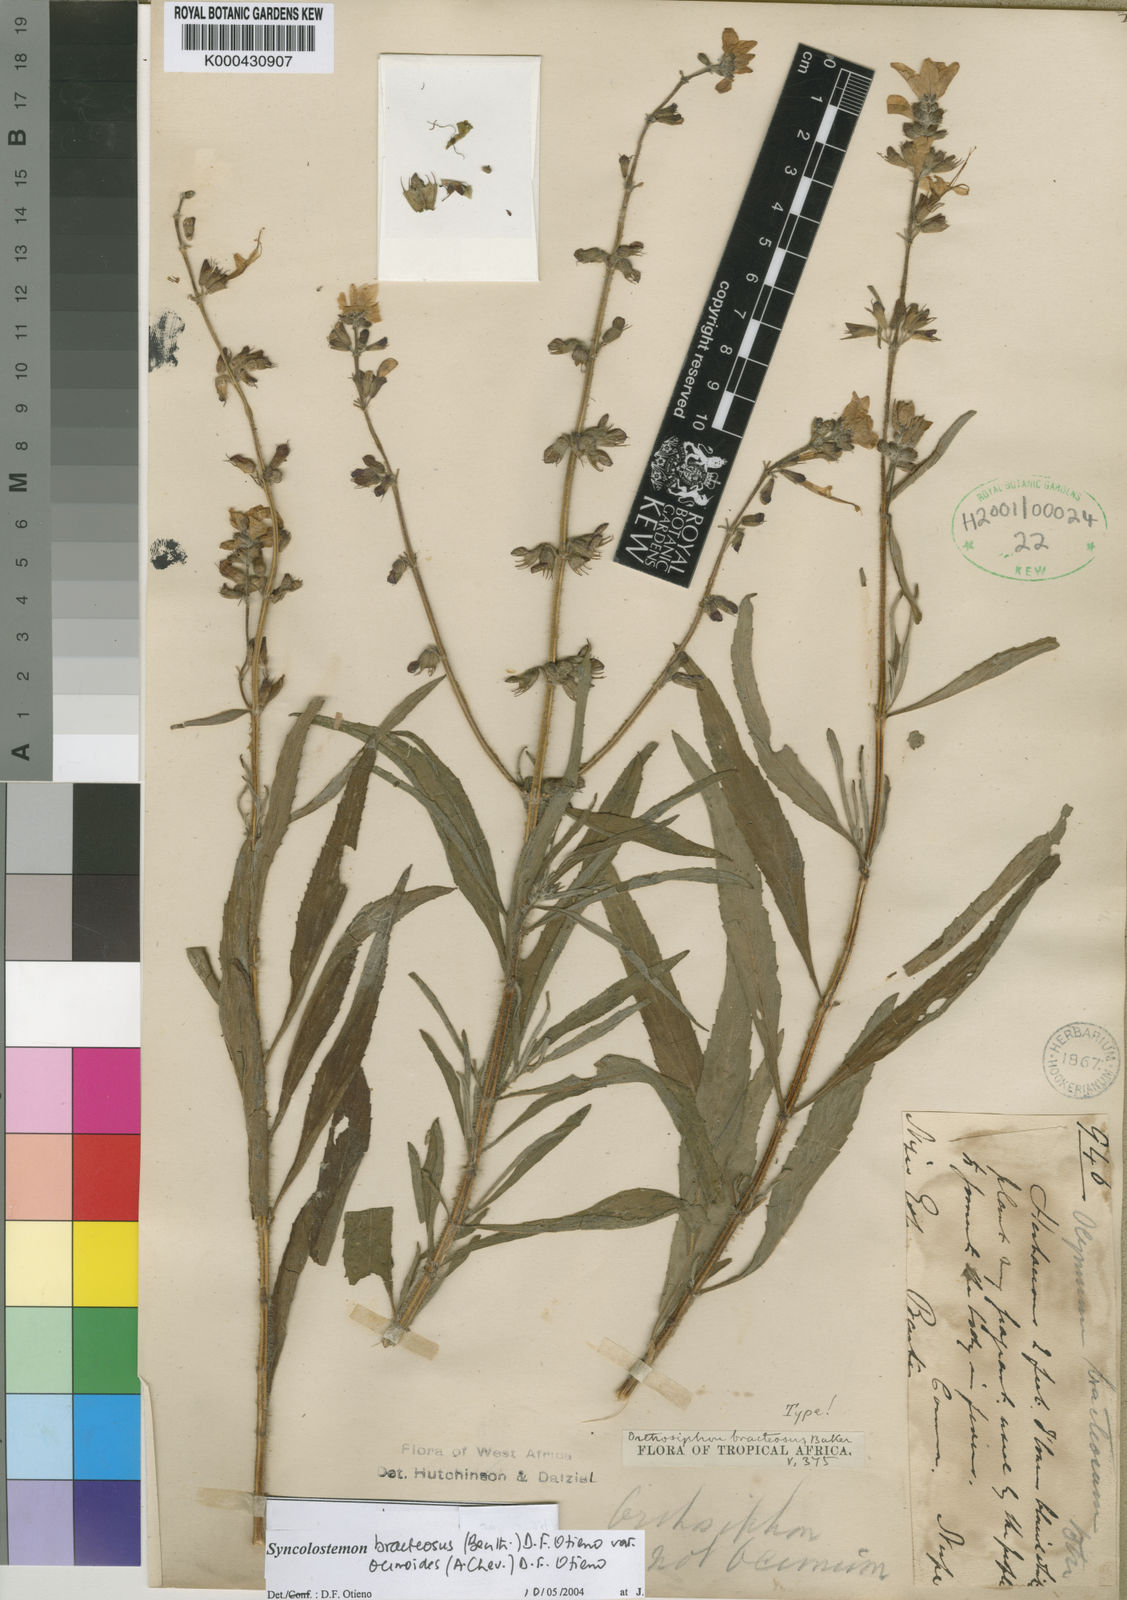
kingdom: Plantae
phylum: Tracheophyta
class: Magnoliopsida
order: Lamiales
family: Lamiaceae
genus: Syncolostemon
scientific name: Syncolostemon bracteosus
